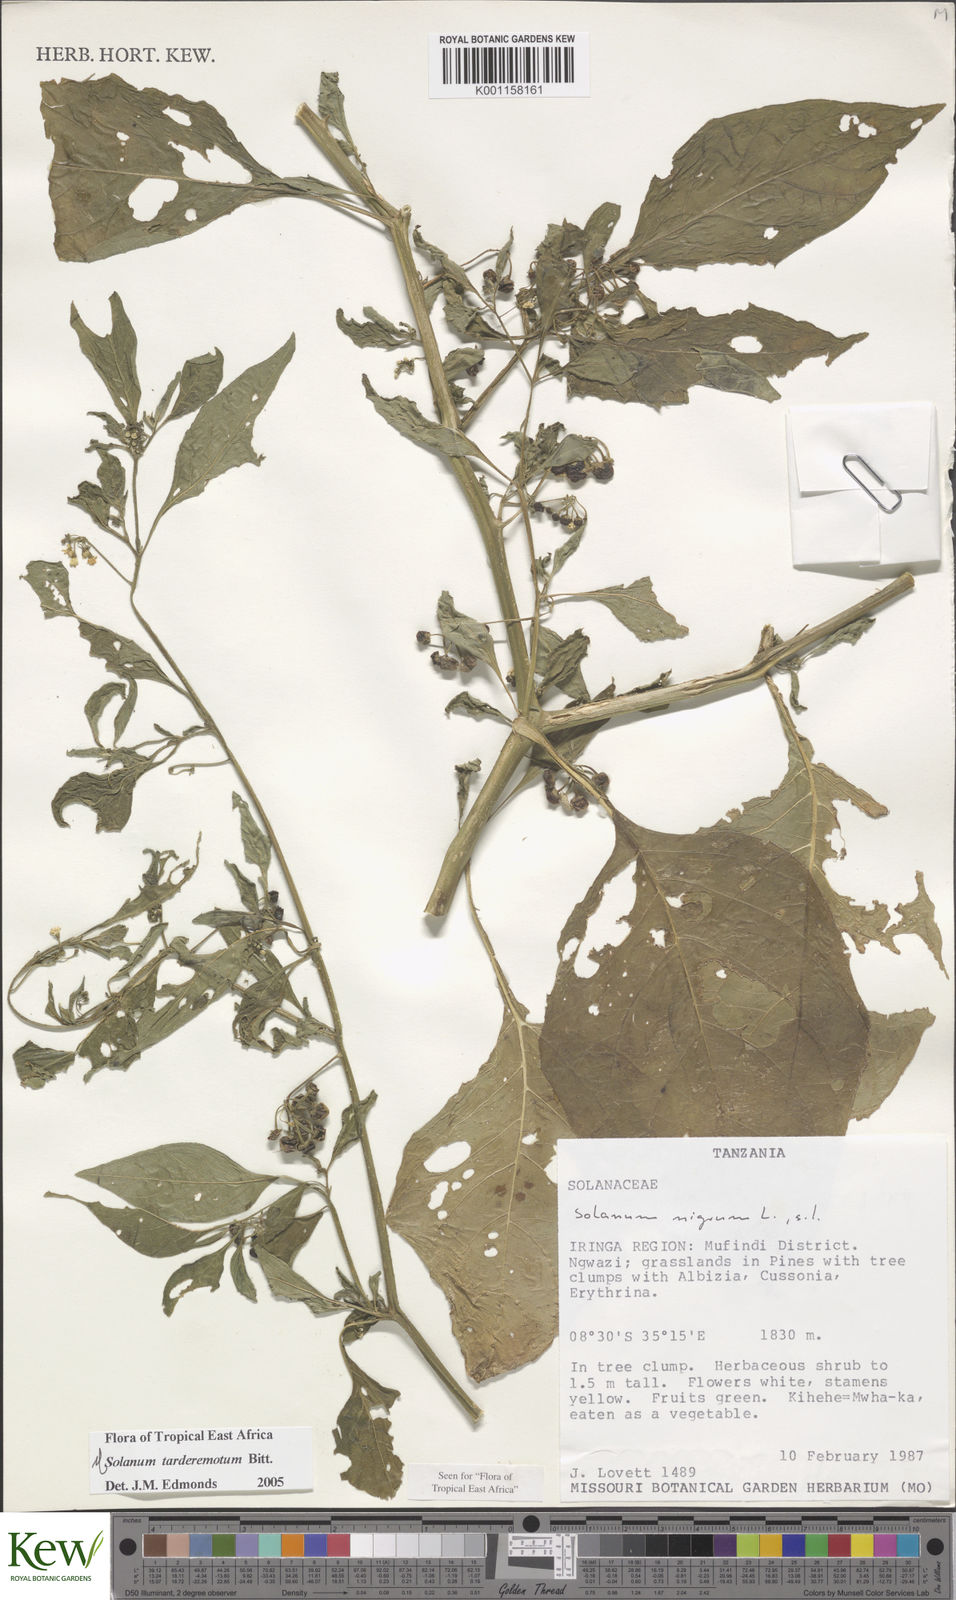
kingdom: Plantae
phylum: Tracheophyta
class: Magnoliopsida
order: Solanales
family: Solanaceae
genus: Solanum
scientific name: Solanum tarderemotum
